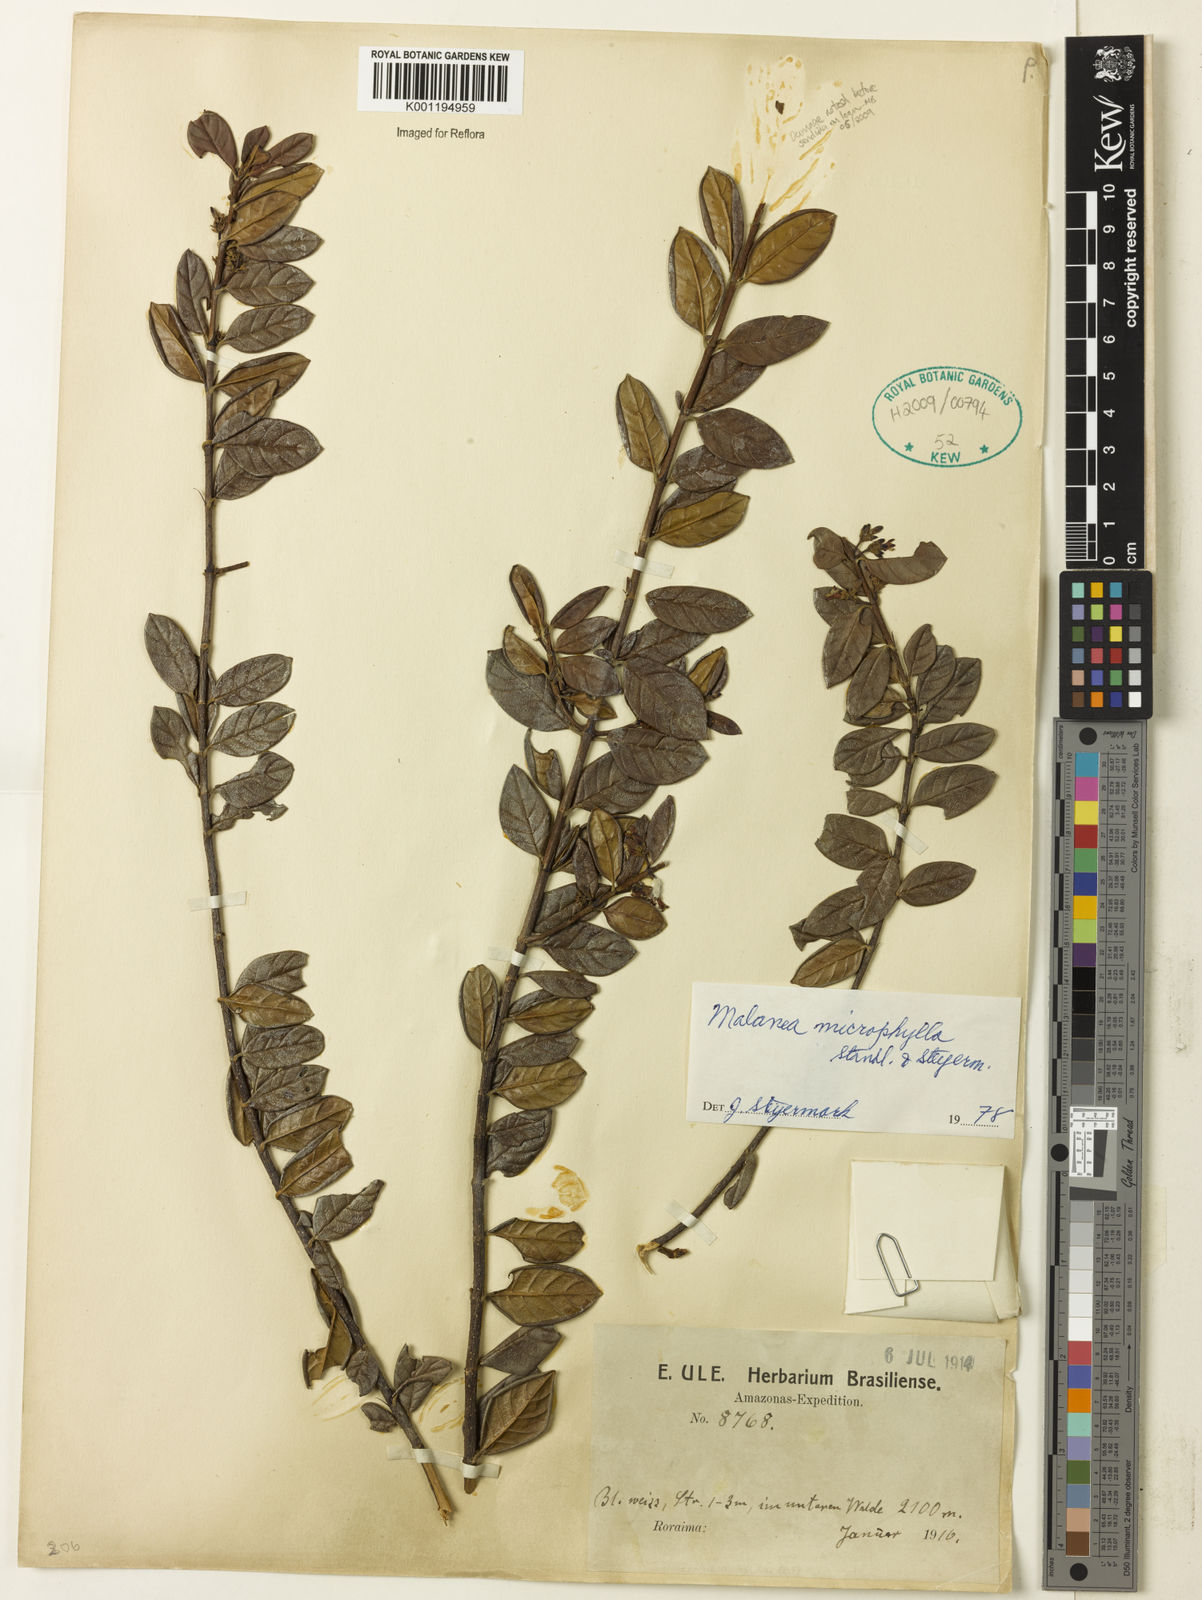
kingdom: Plantae
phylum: Tracheophyta
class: Magnoliopsida
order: Gentianales
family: Rubiaceae
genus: Malanea
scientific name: Malanea microphylla
